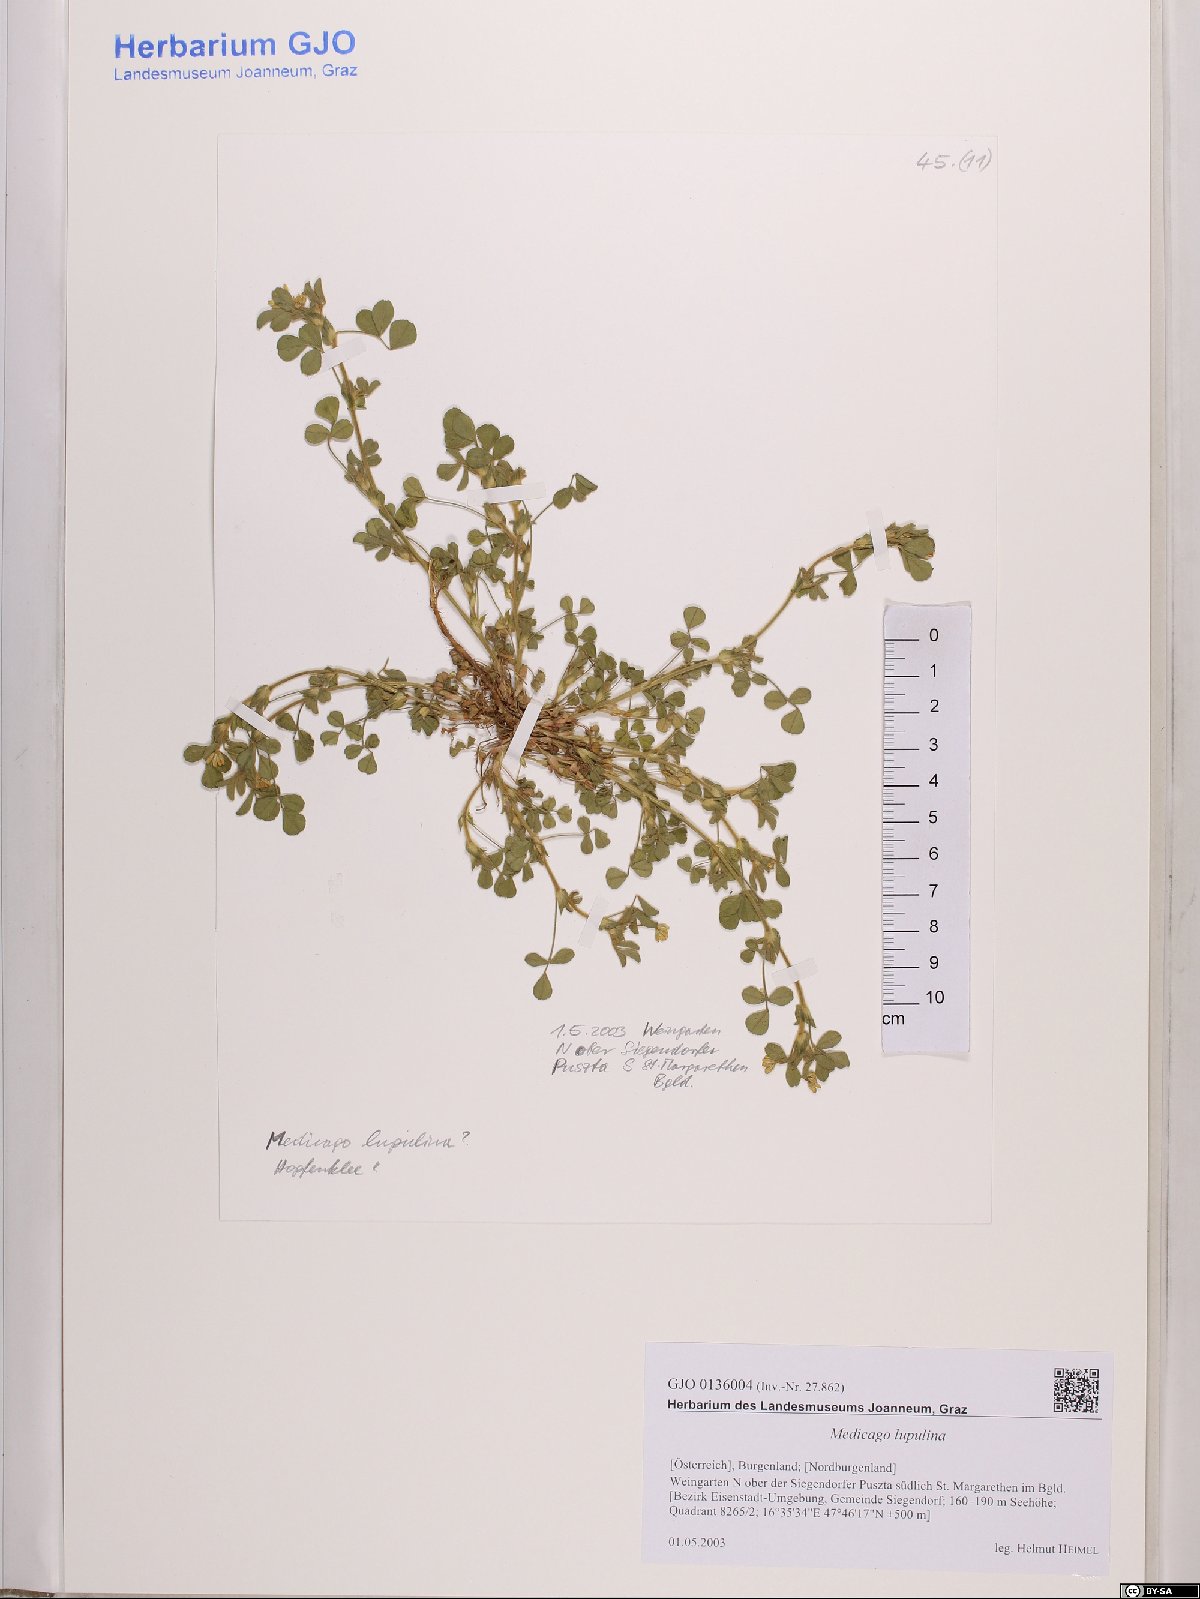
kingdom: Plantae
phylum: Tracheophyta
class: Magnoliopsida
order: Fabales
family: Fabaceae
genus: Medicago
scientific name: Medicago lupulina
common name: Black medick
